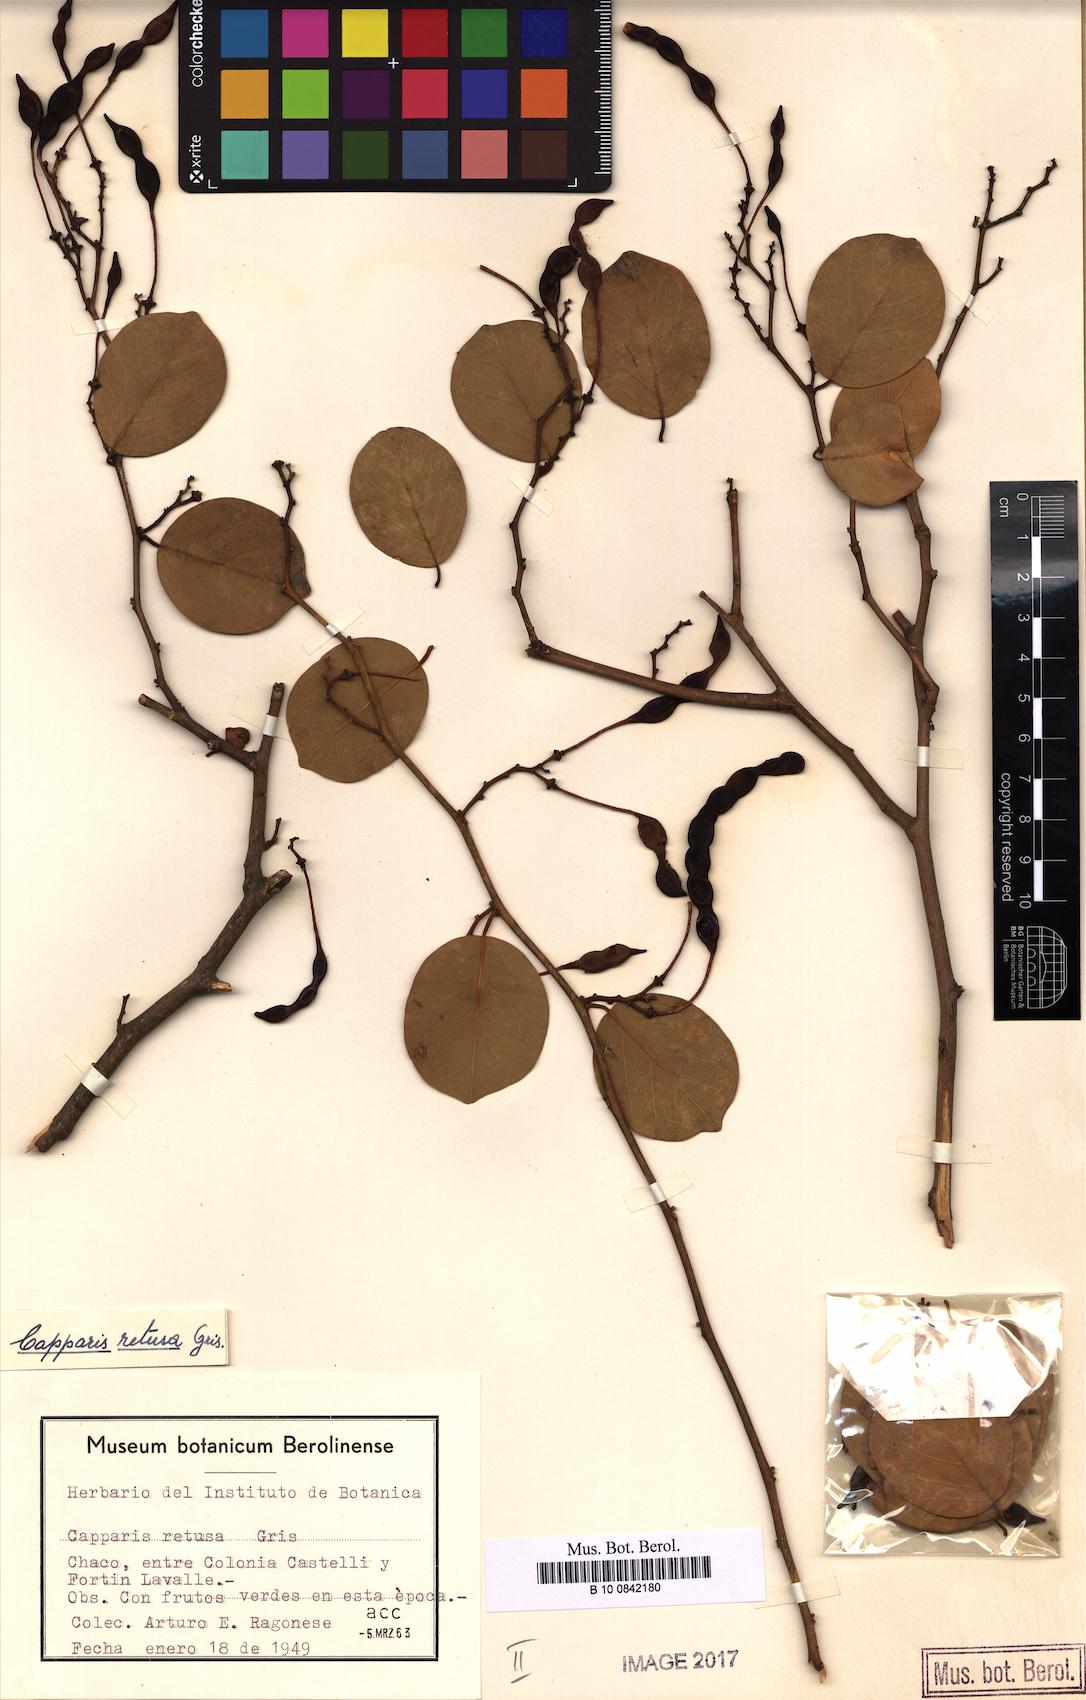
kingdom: Plantae
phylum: Tracheophyta
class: Magnoliopsida
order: Brassicales
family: Capparaceae
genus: Cynophalla
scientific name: Cynophalla retusa
